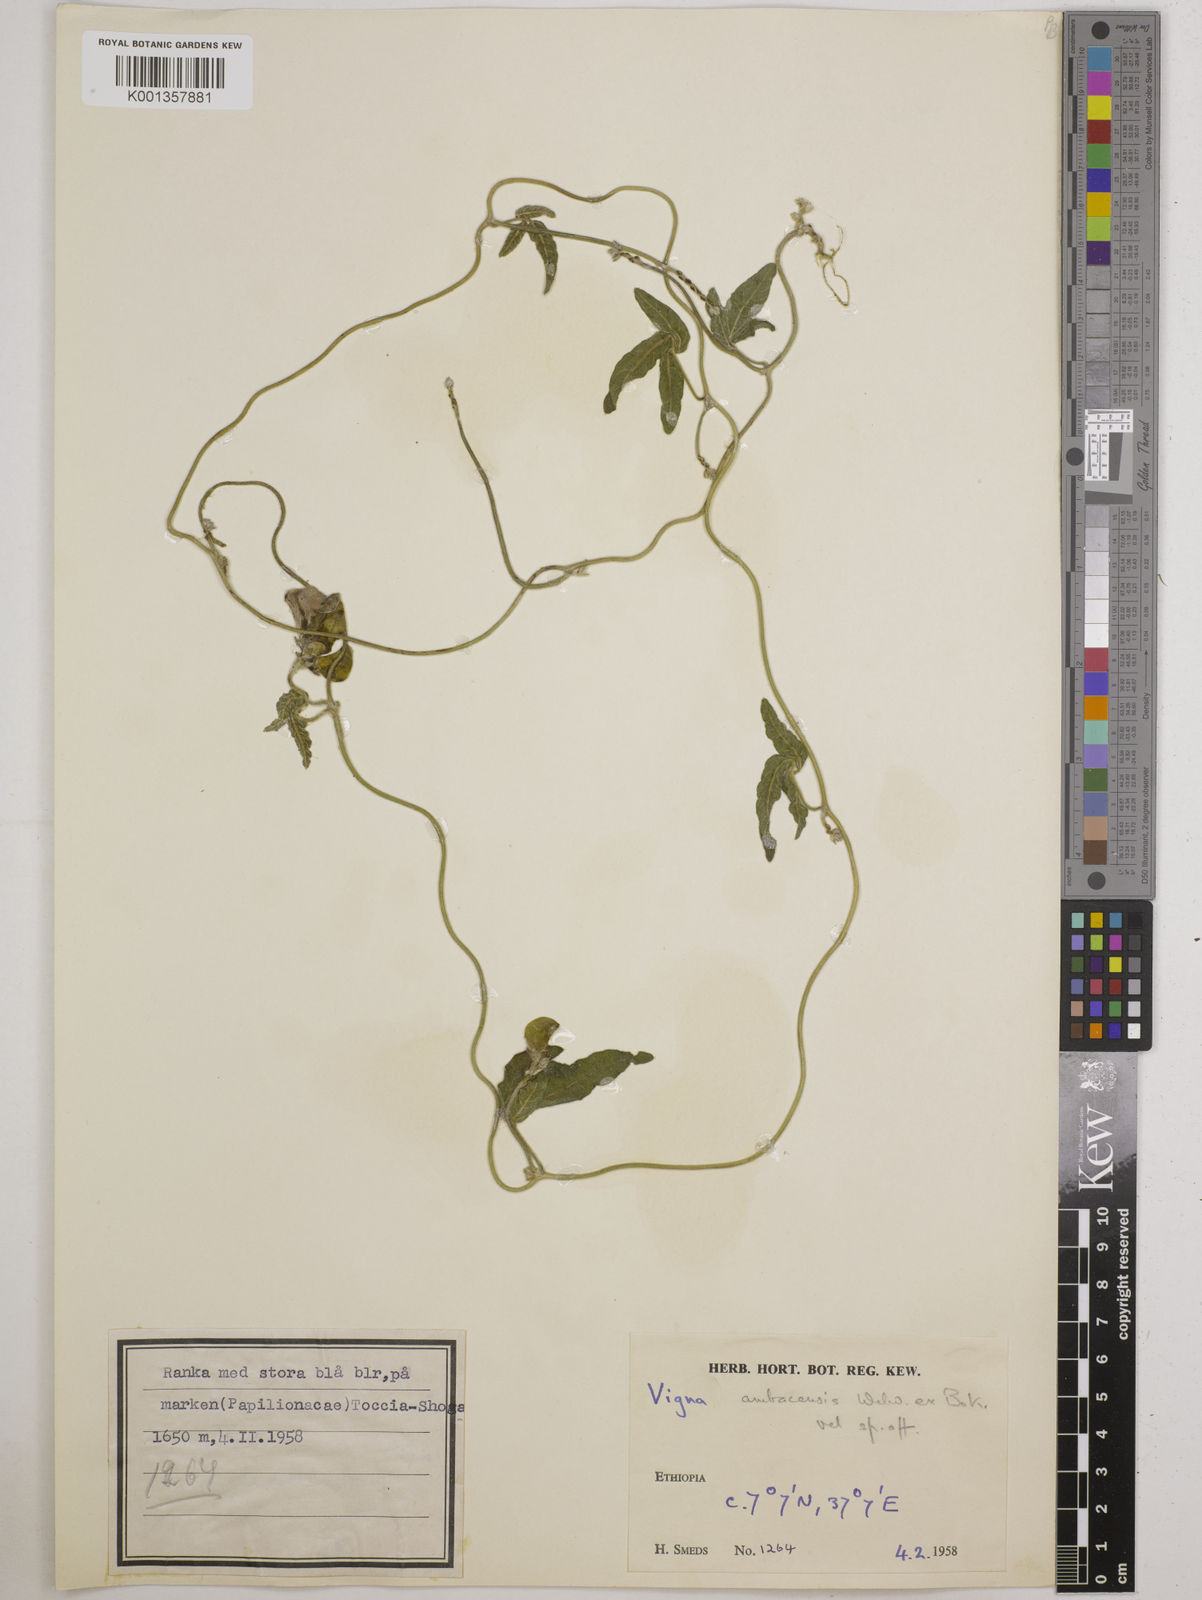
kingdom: Plantae
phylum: Tracheophyta
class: Magnoliopsida
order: Fabales
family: Fabaceae
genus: Vigna
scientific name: Vigna ambacensis
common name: Tsarkiyan zomo
